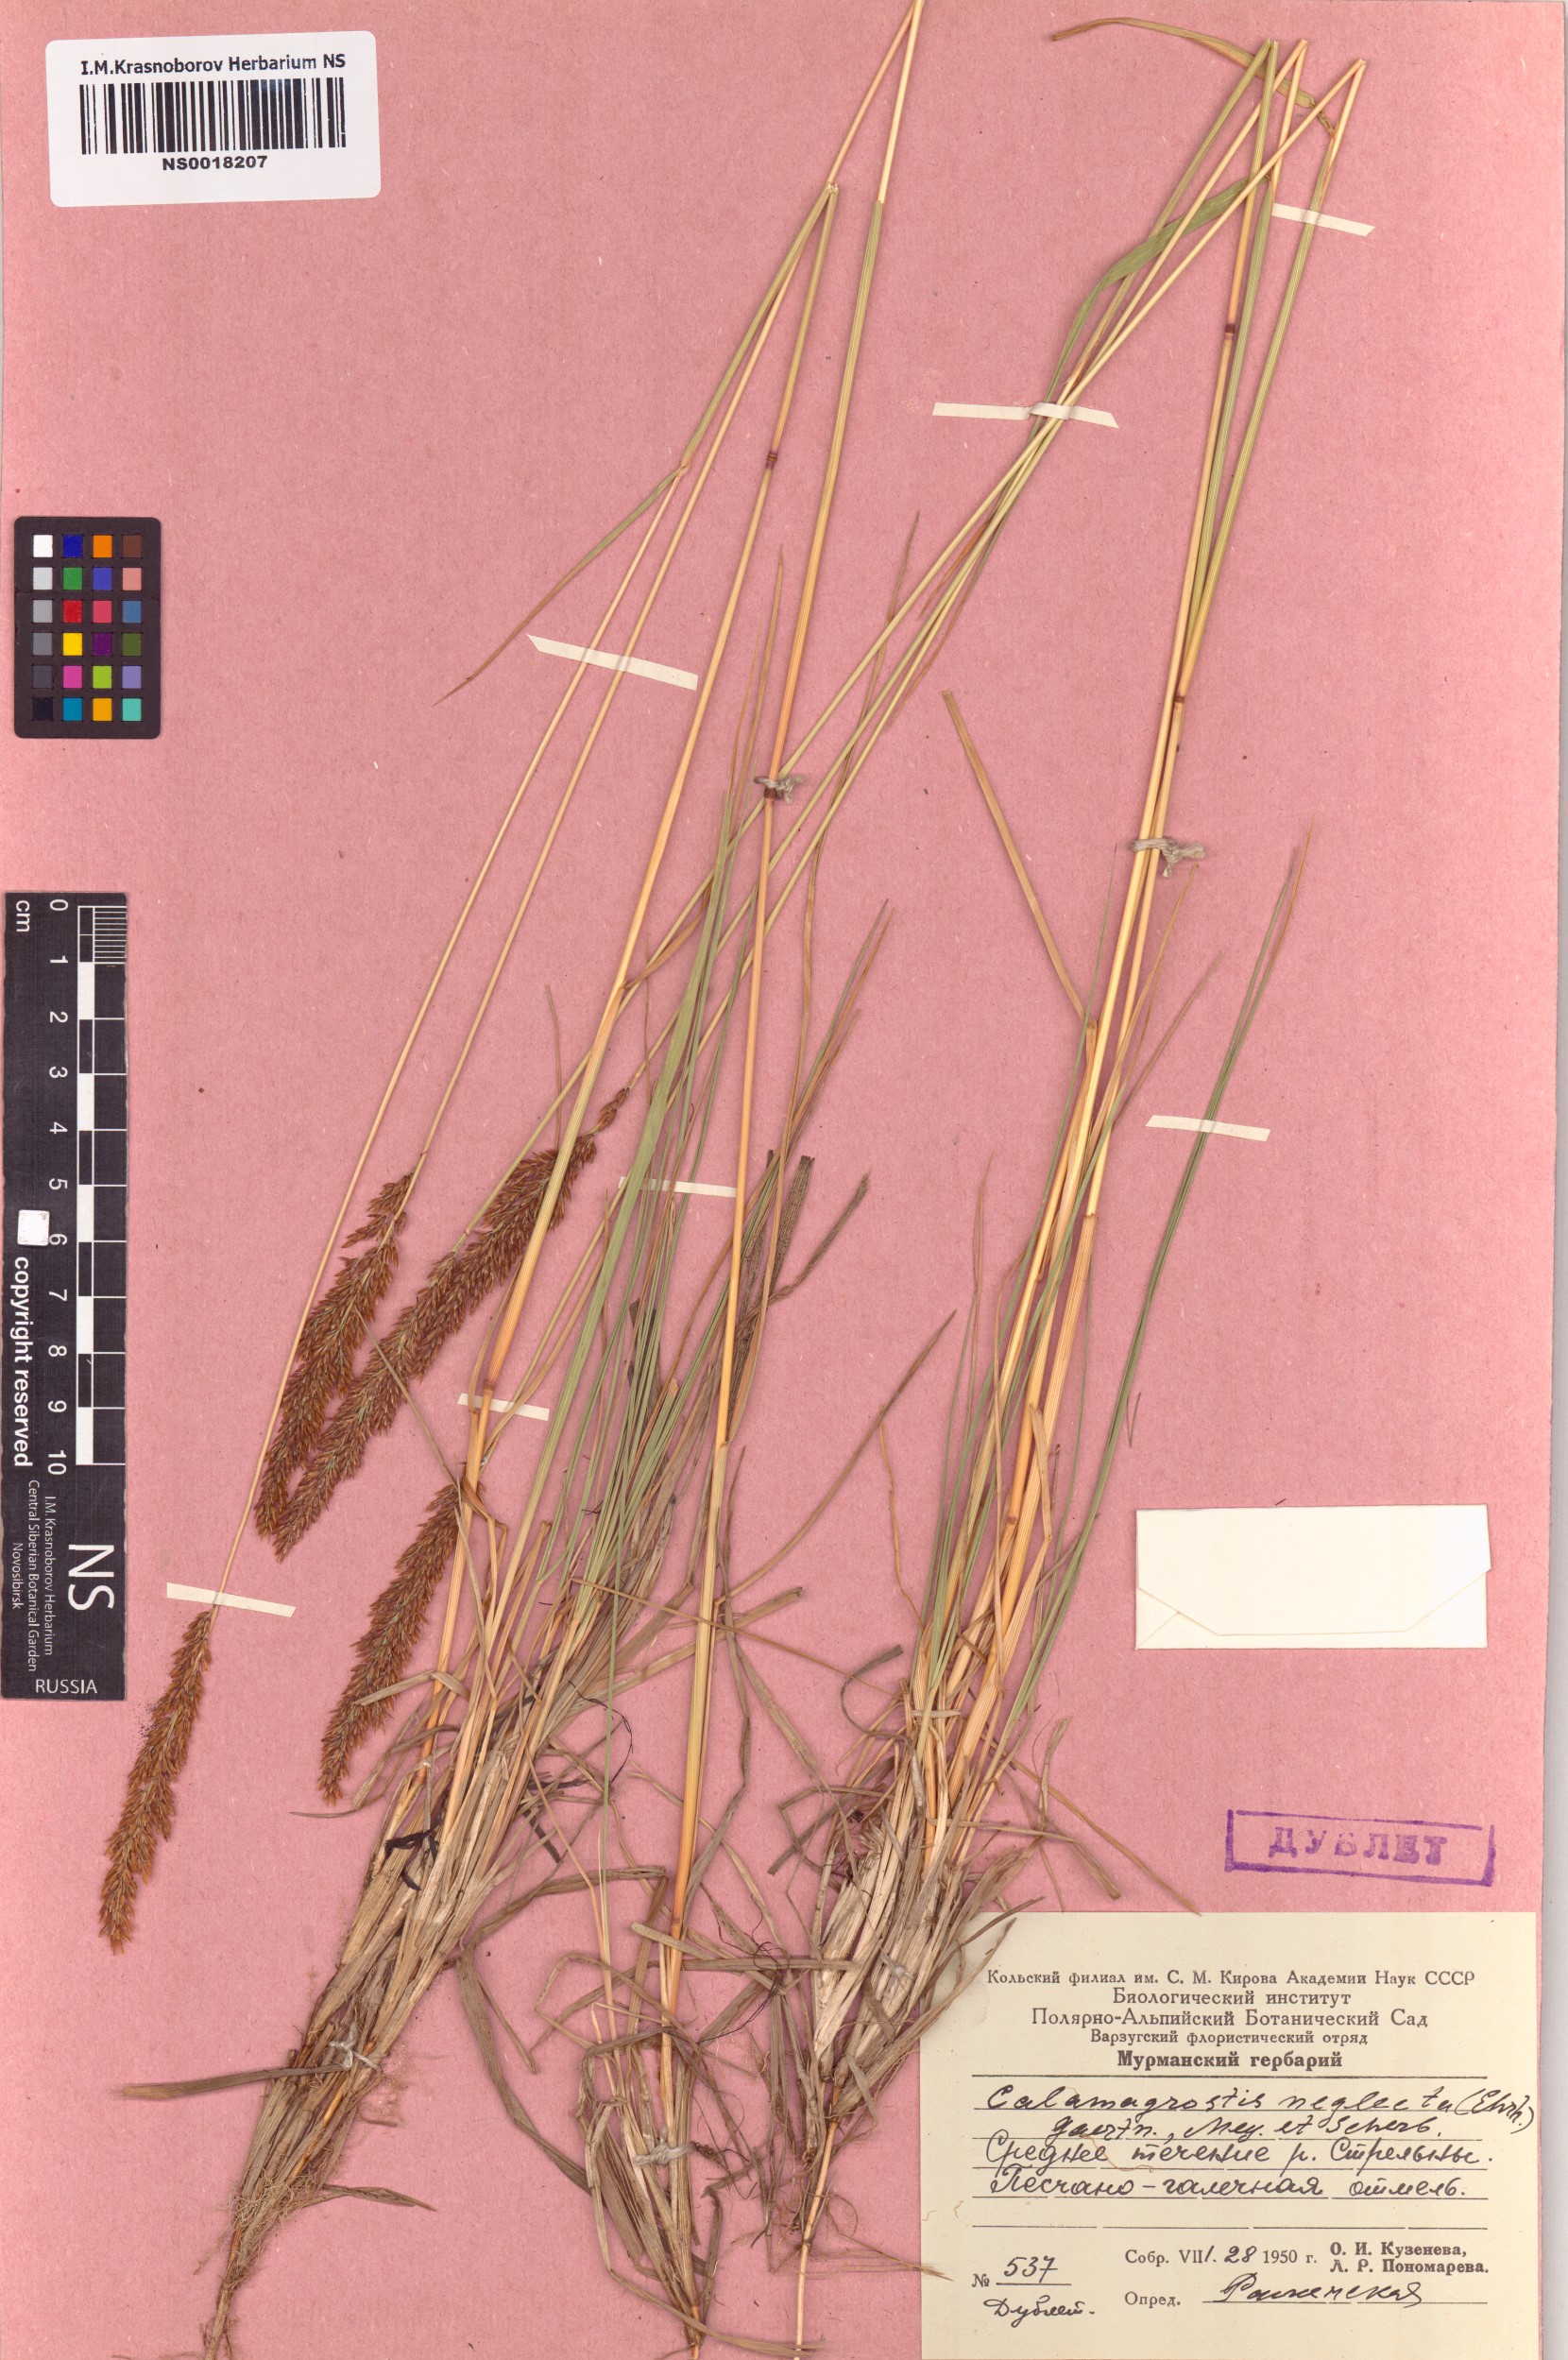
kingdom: Plantae
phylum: Tracheophyta
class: Liliopsida
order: Poales
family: Poaceae
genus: Achnatherum
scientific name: Achnatherum calamagrostis
